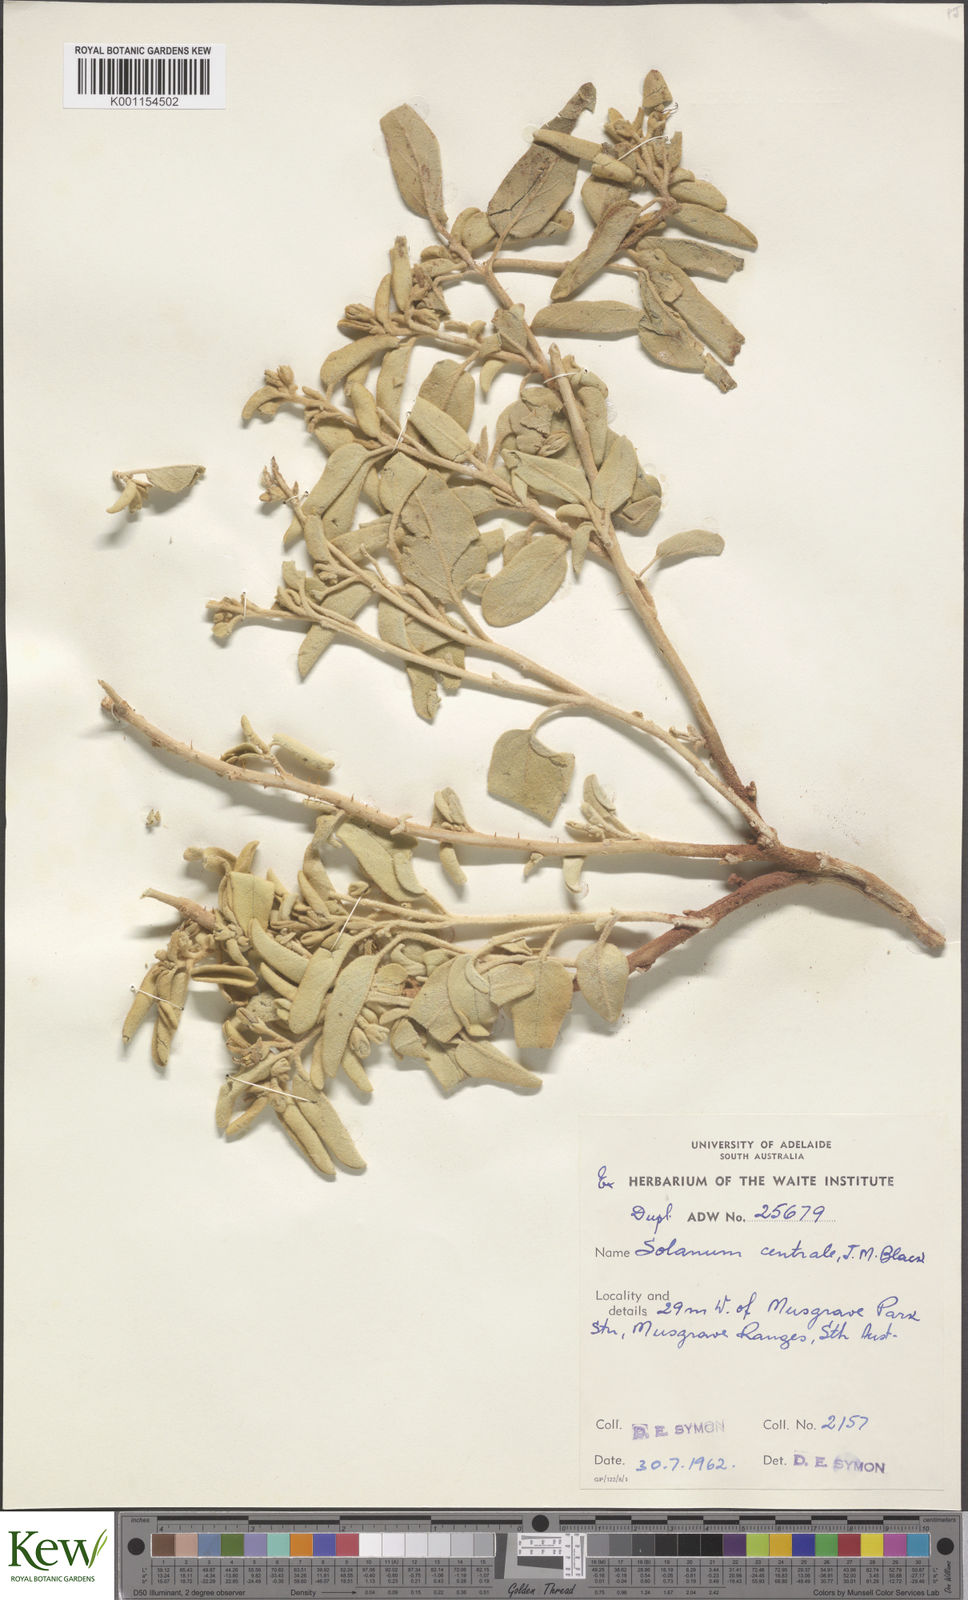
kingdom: Plantae
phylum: Tracheophyta
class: Magnoliopsida
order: Solanales
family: Solanaceae
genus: Solanum
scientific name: Solanum centrale
